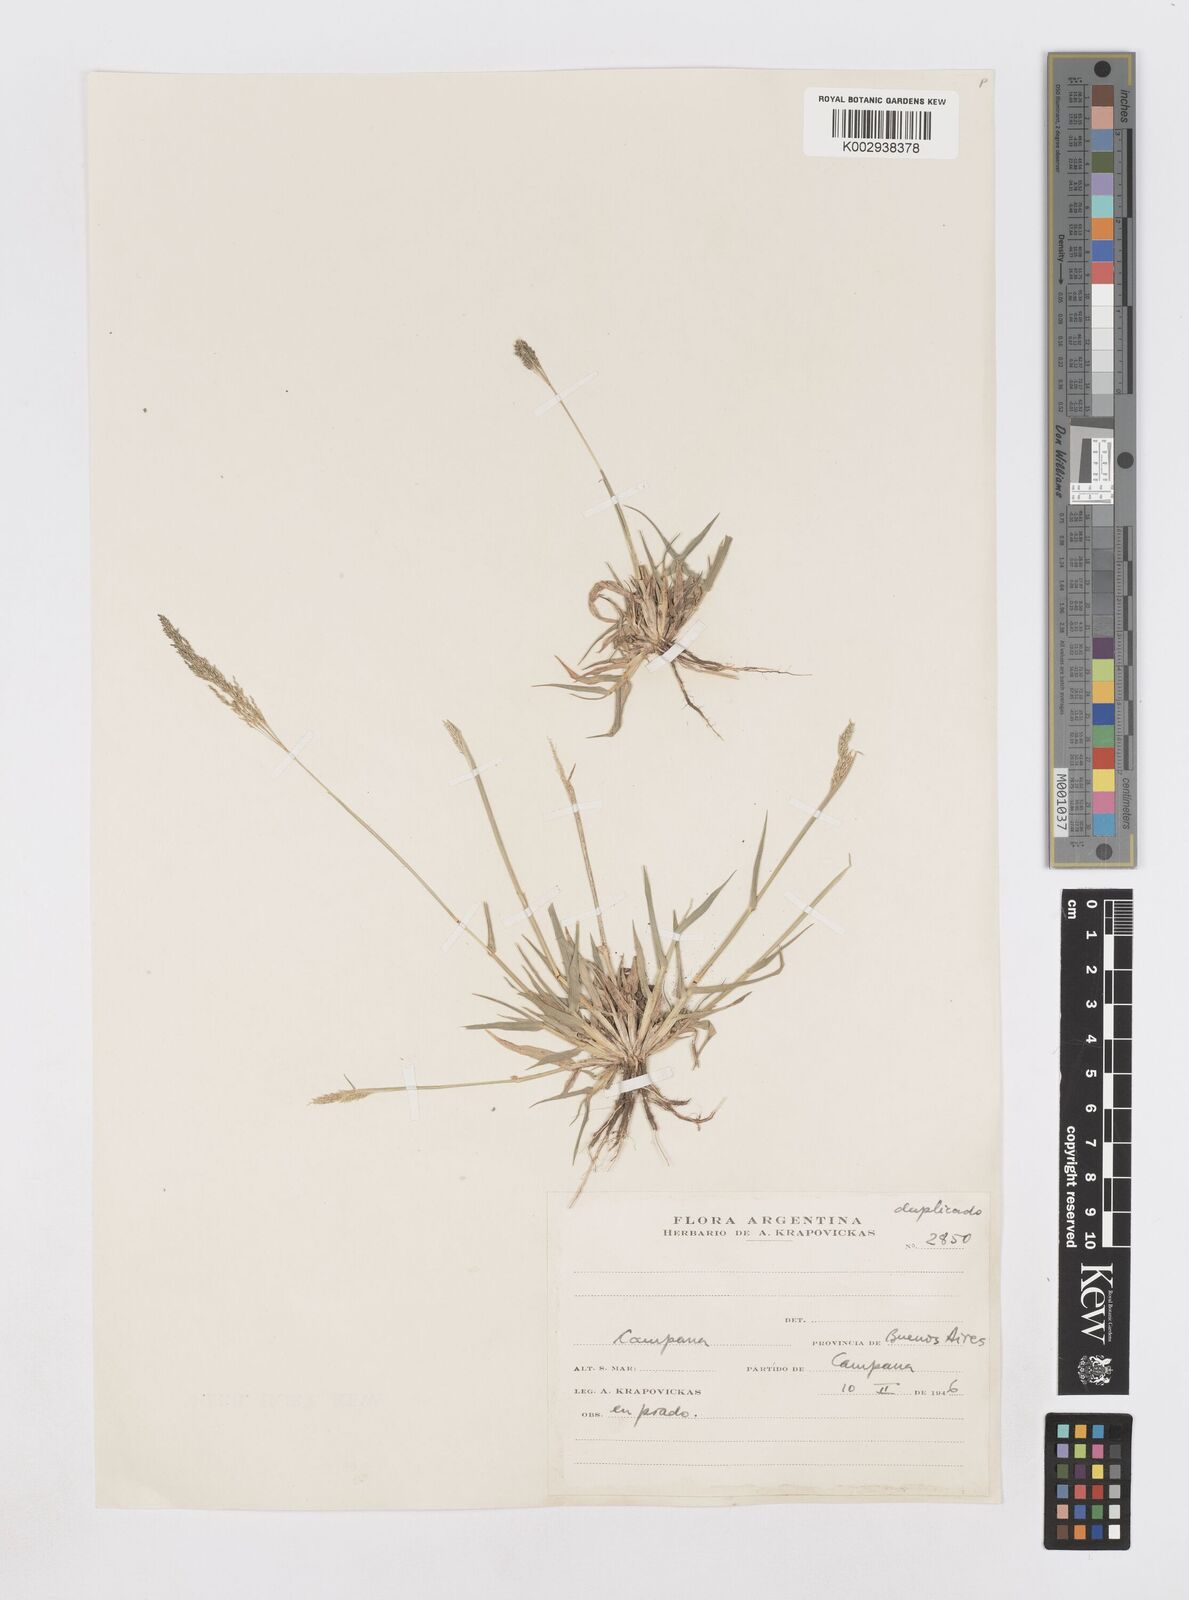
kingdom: Plantae
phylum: Tracheophyta
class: Liliopsida
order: Poales
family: Poaceae
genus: Sporobolus
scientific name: Sporobolus pyramidatus
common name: Whorled dropseed
